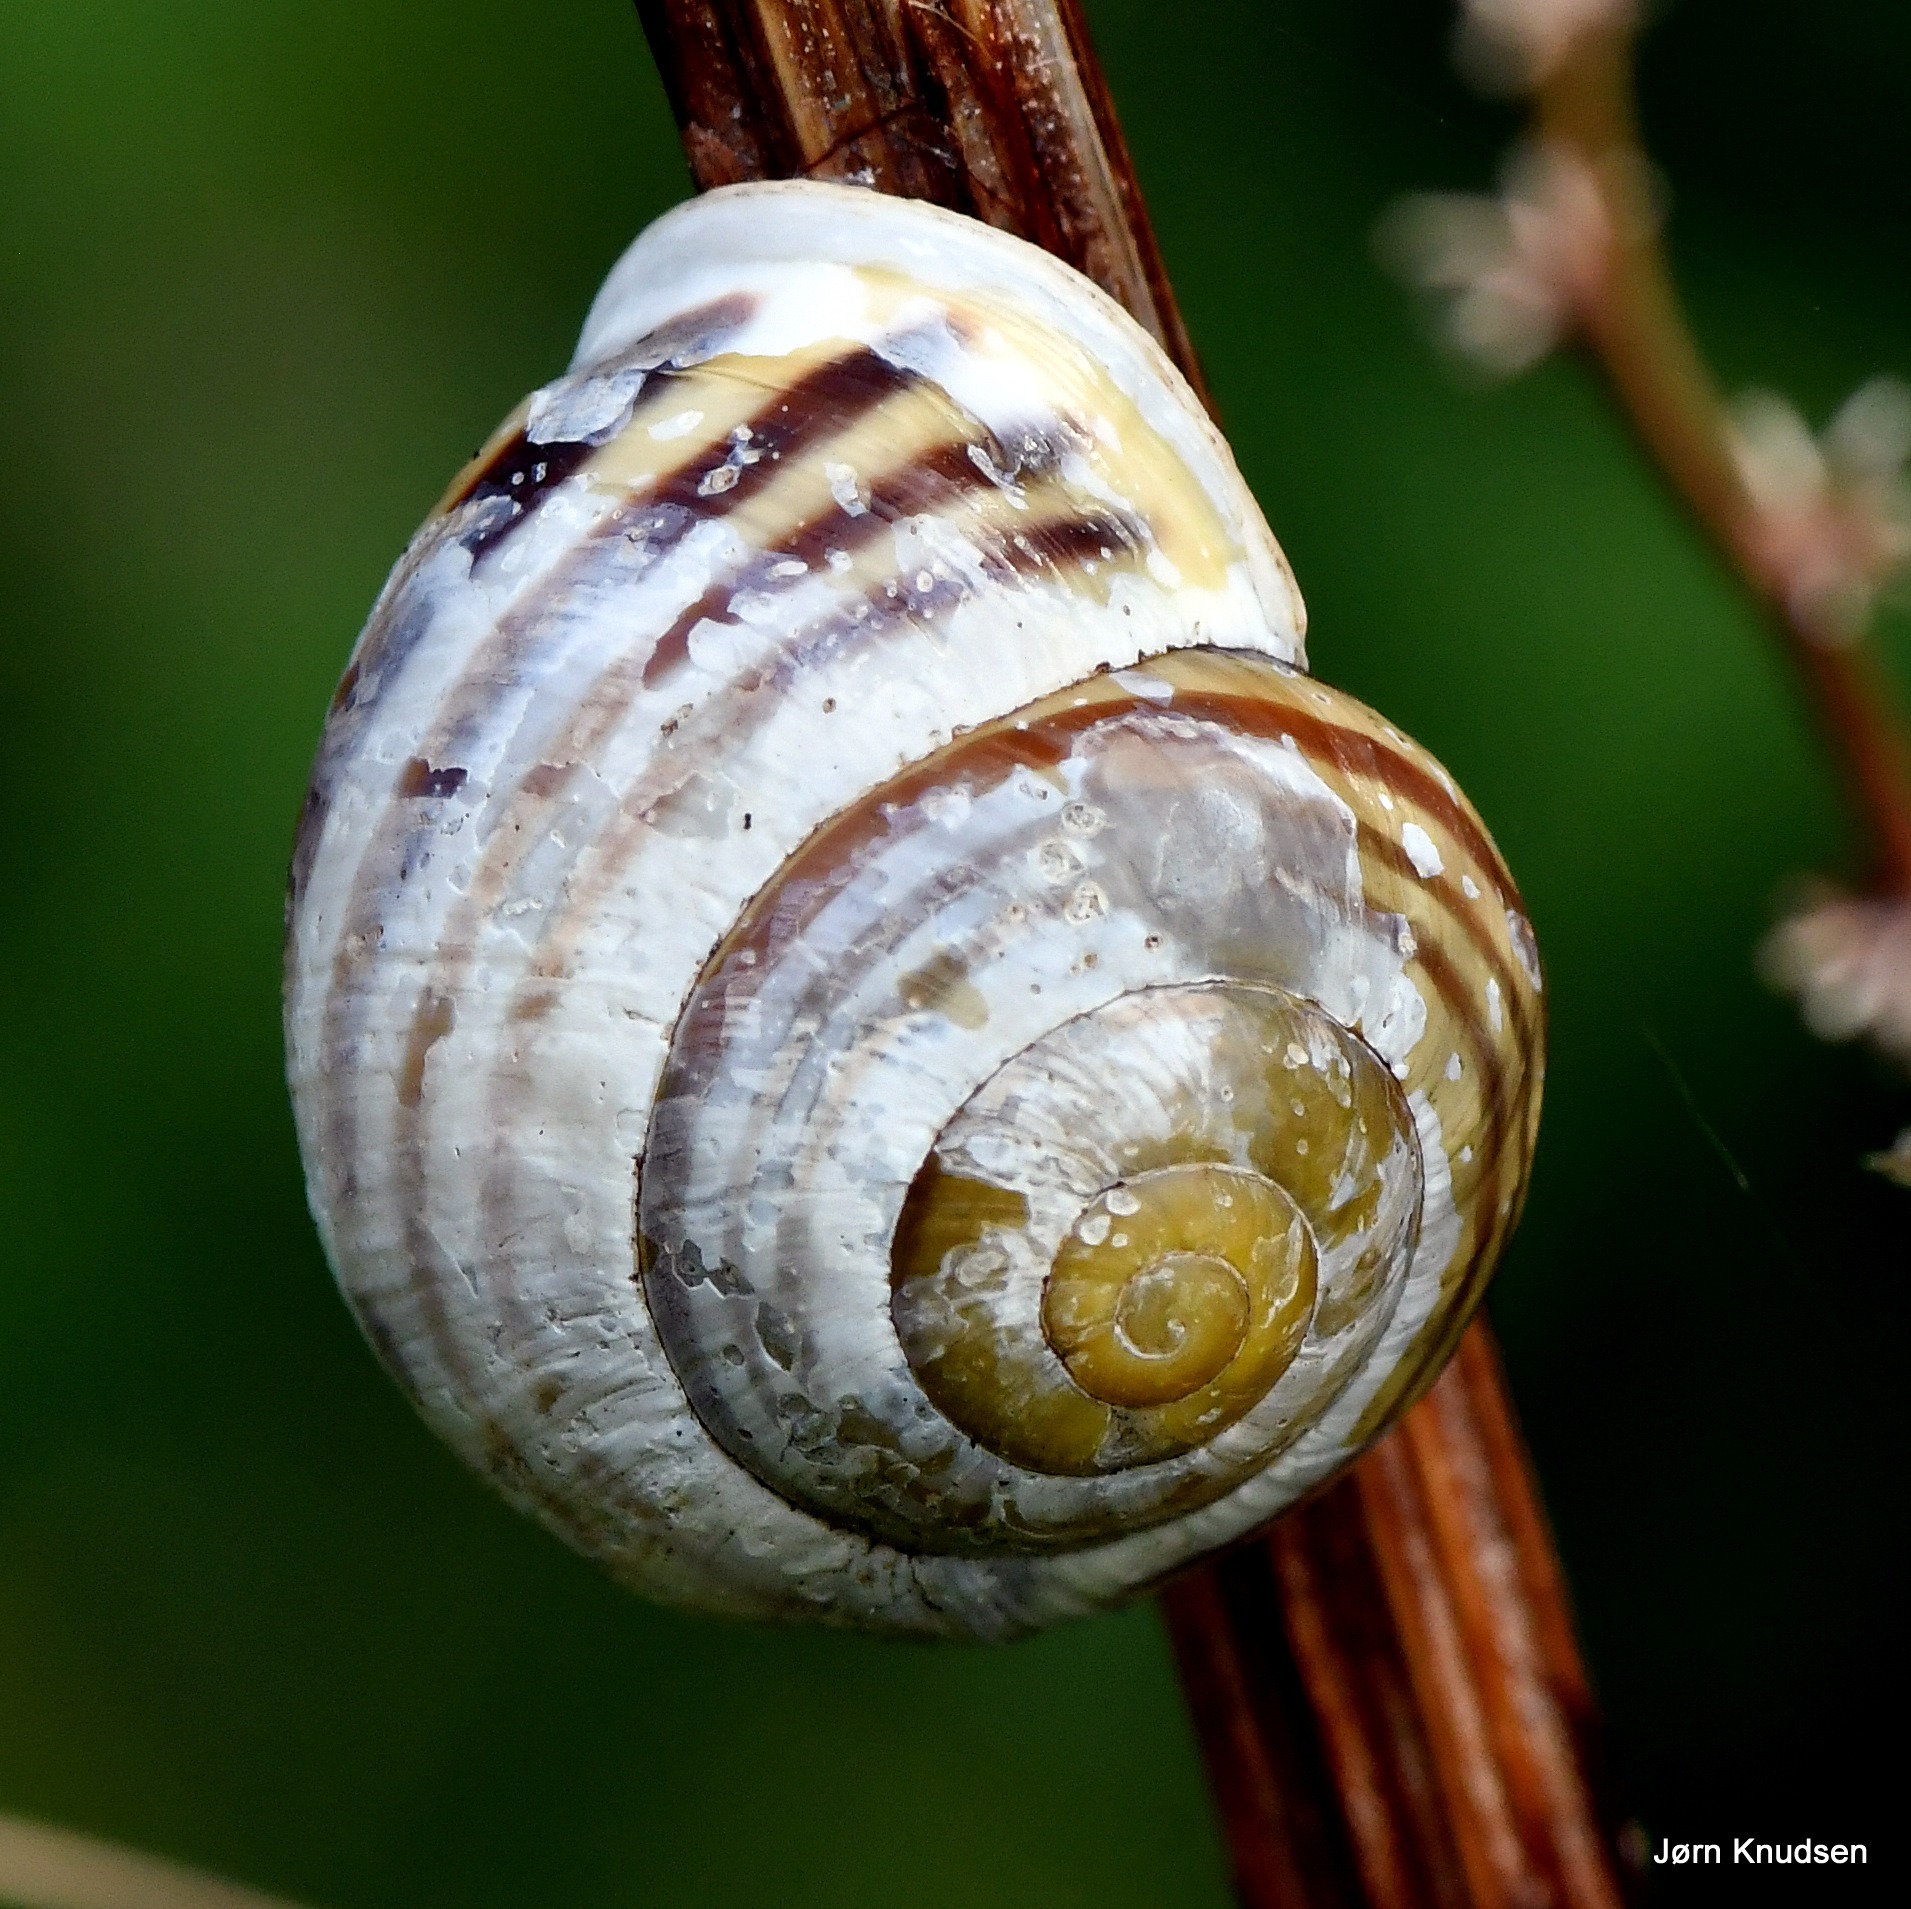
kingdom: Animalia
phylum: Mollusca
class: Gastropoda
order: Stylommatophora
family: Helicidae
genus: Cepaea
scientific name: Cepaea hortensis
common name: Havesnegl
